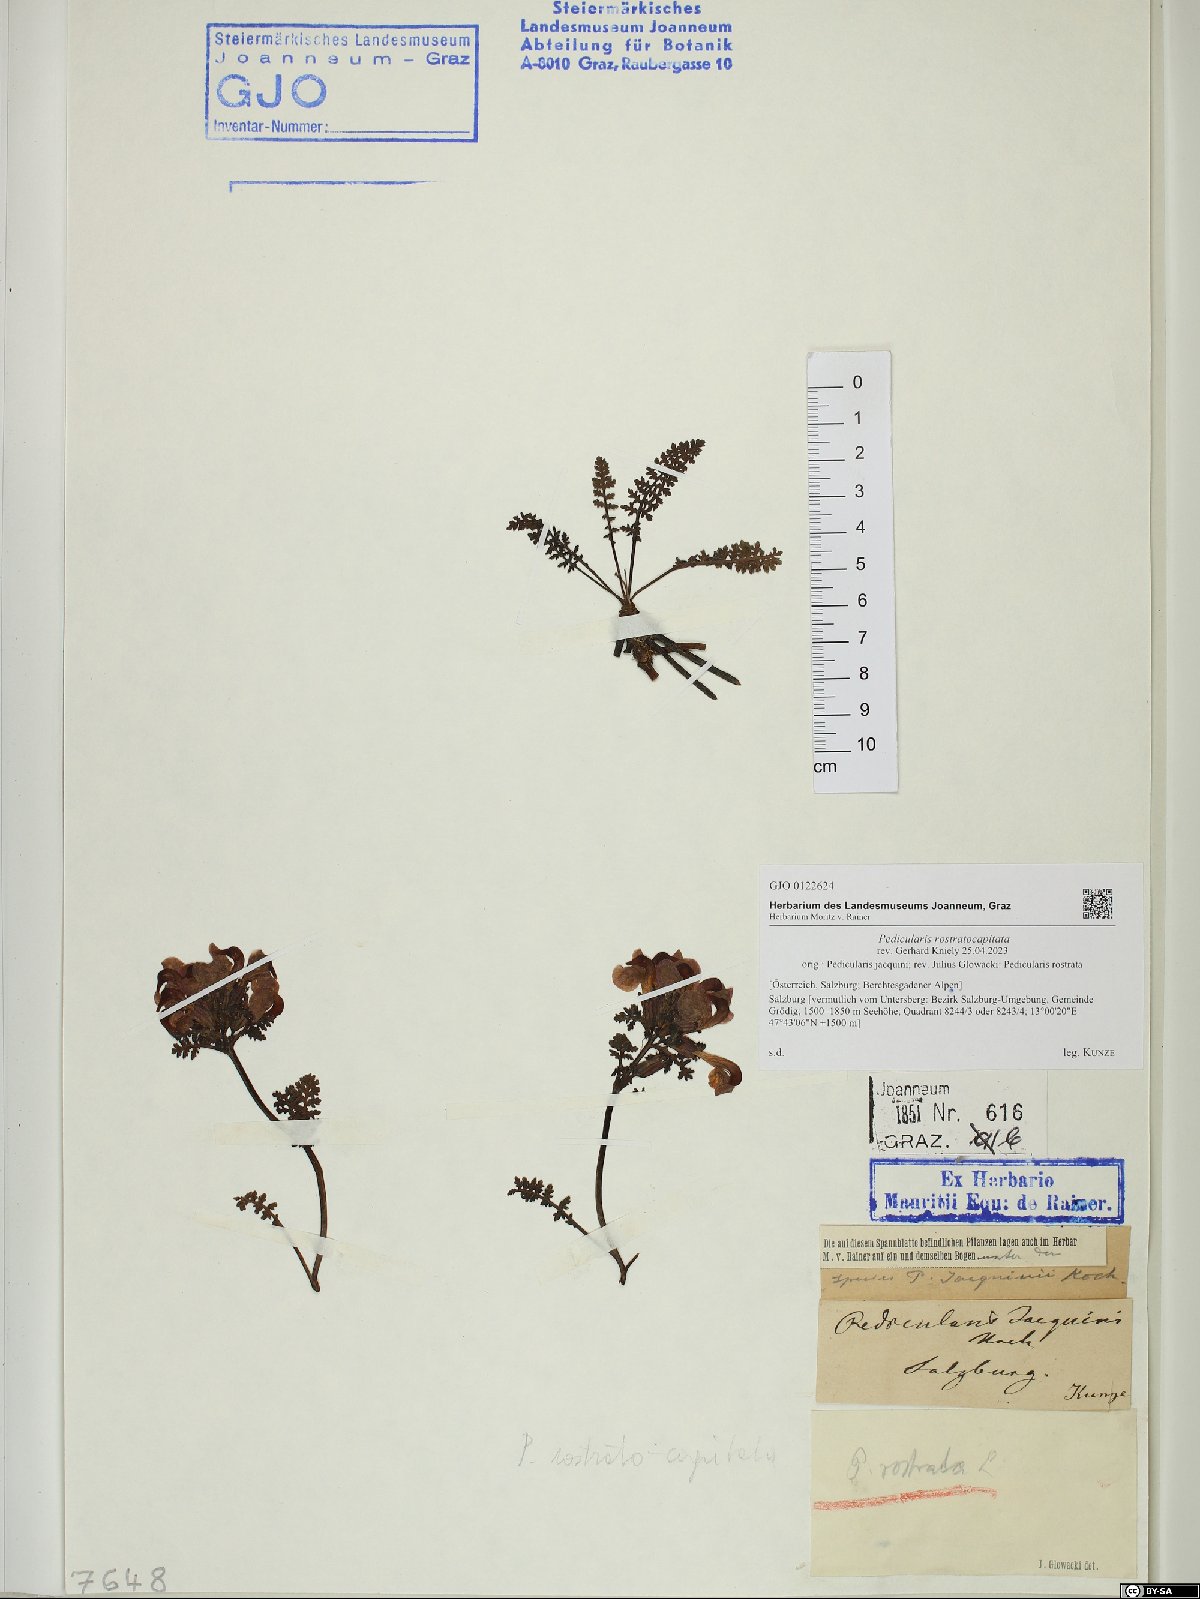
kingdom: Plantae
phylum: Tracheophyta
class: Magnoliopsida
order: Lamiales
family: Orobanchaceae
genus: Pedicularis
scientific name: Pedicularis rostratocapitata
